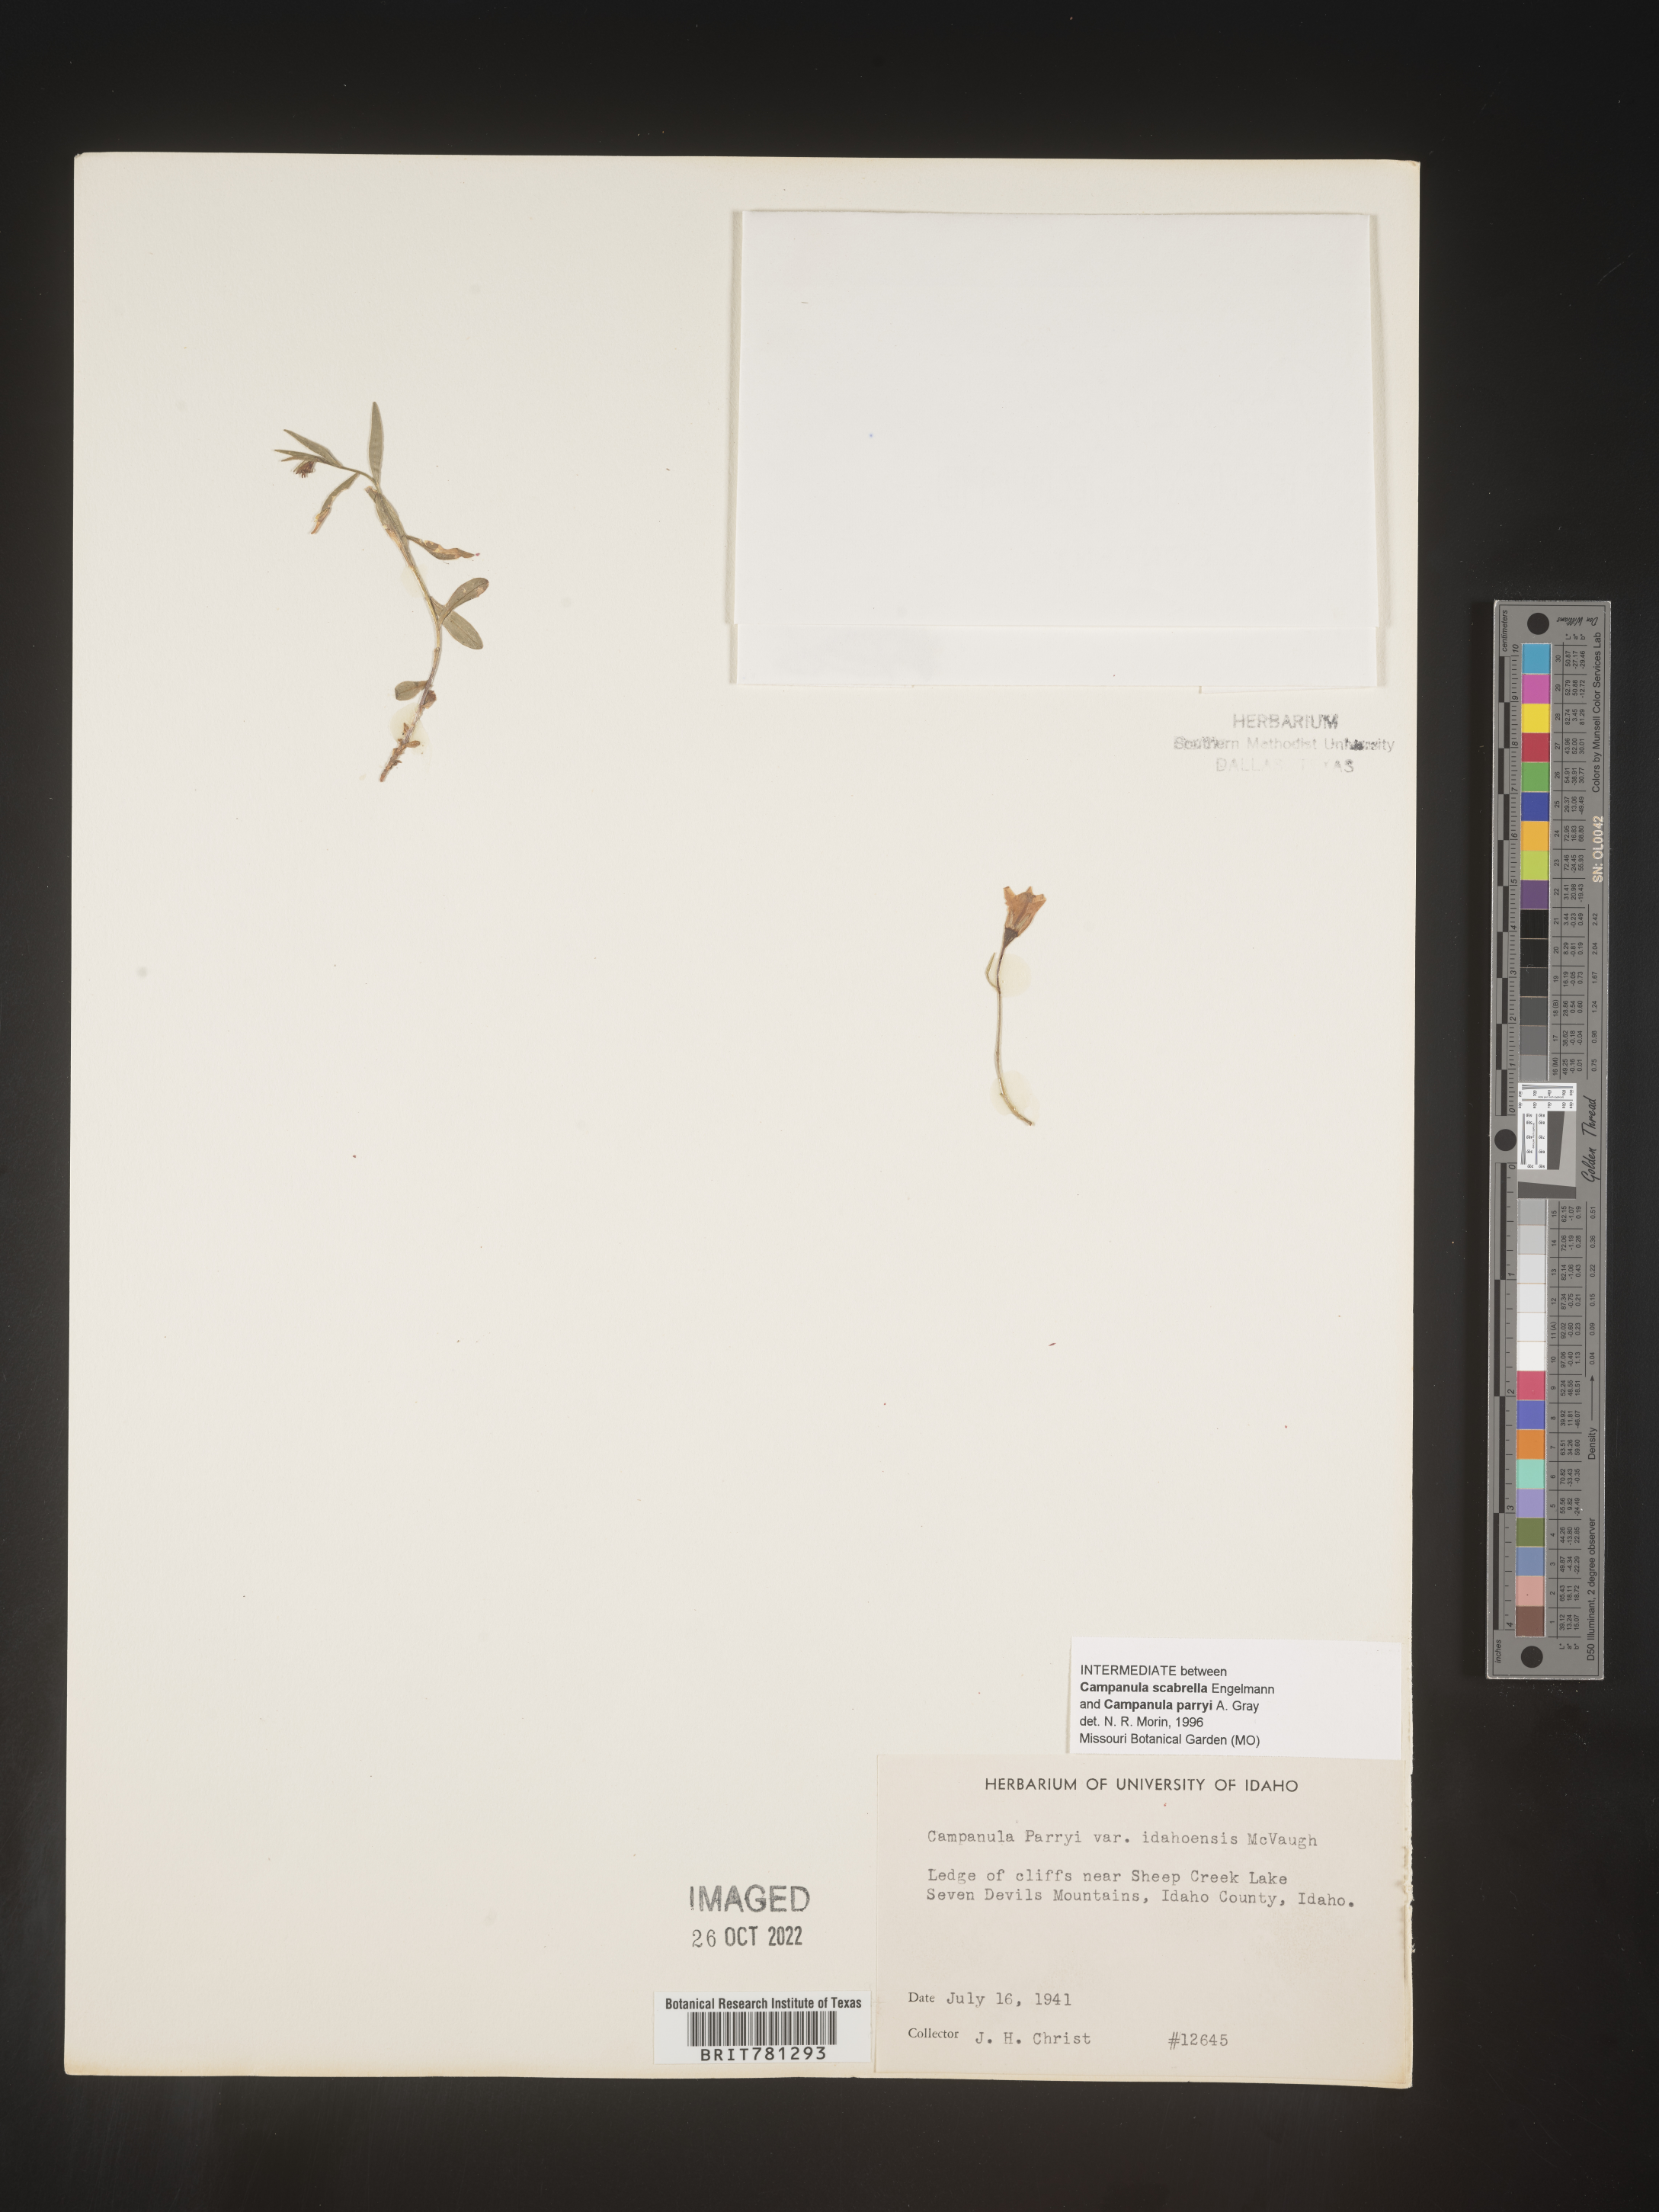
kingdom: Plantae
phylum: Tracheophyta
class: Magnoliopsida
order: Asterales
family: Campanulaceae
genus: Campanula
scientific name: Campanula parryi
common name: Rocky mountain bellflower
